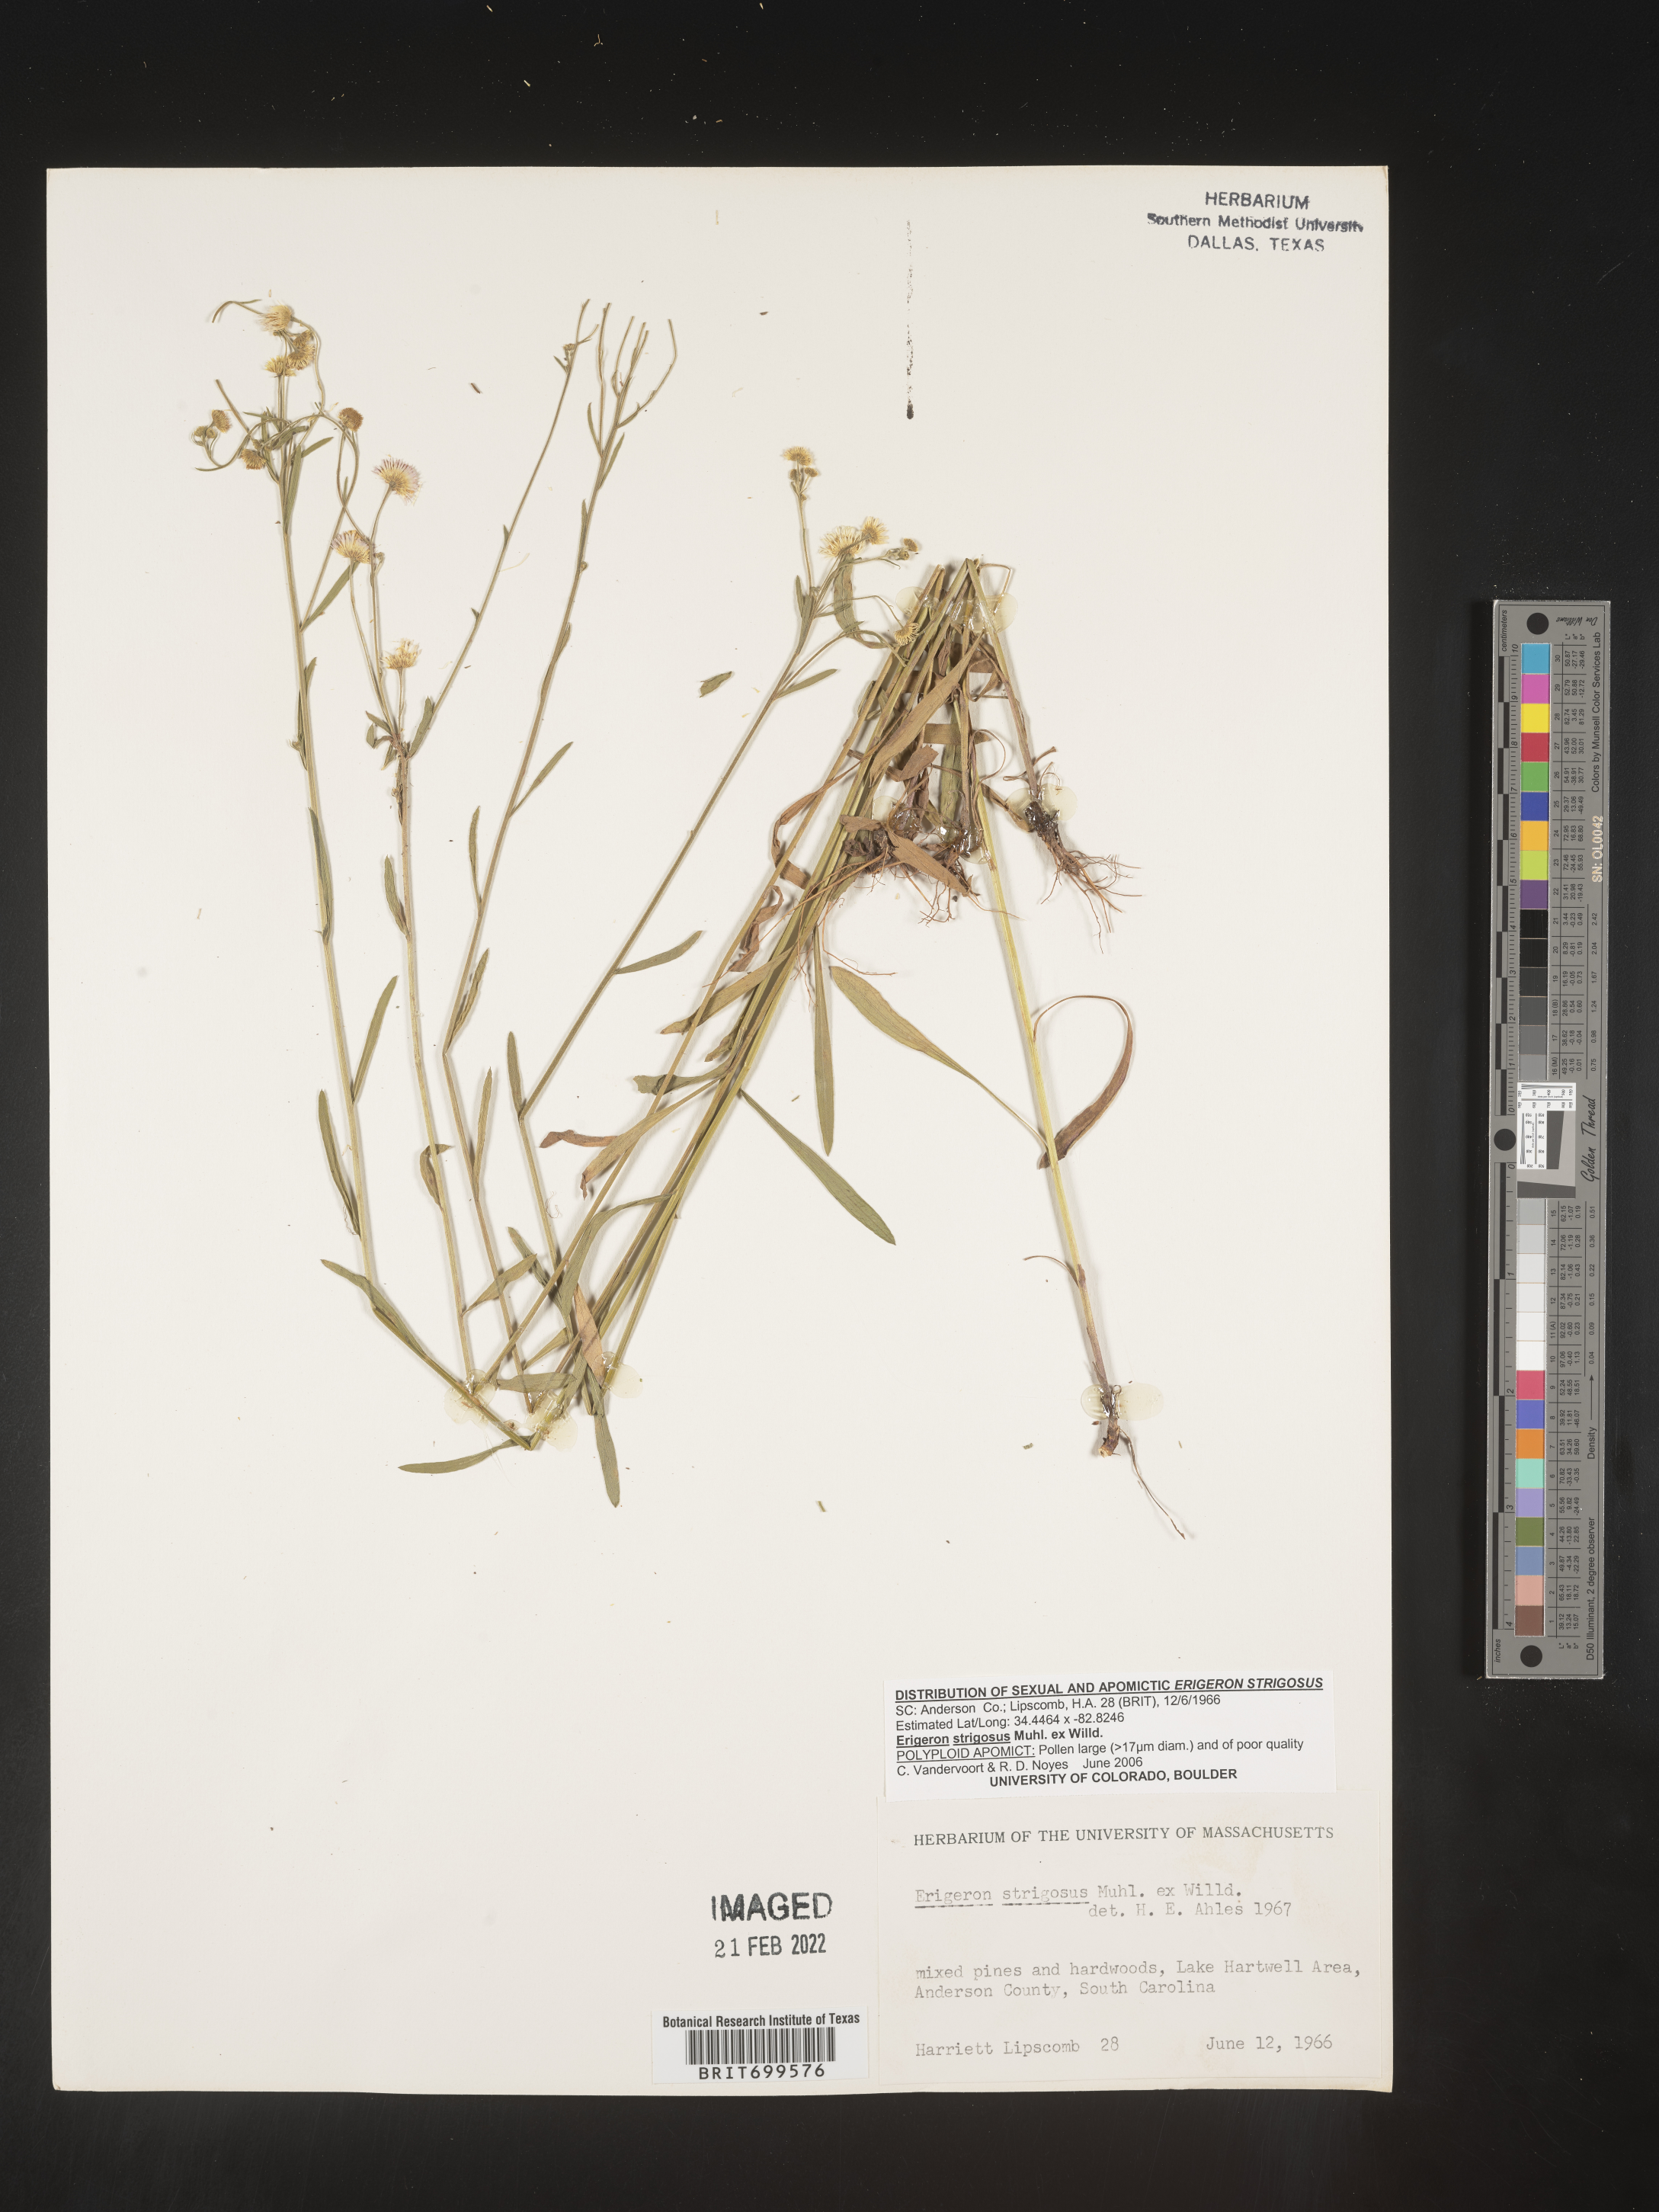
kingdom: Plantae
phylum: Tracheophyta
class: Magnoliopsida
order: Asterales
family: Asteraceae
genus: Erigeron
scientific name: Erigeron strigosus
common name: Common eastern fleabane
